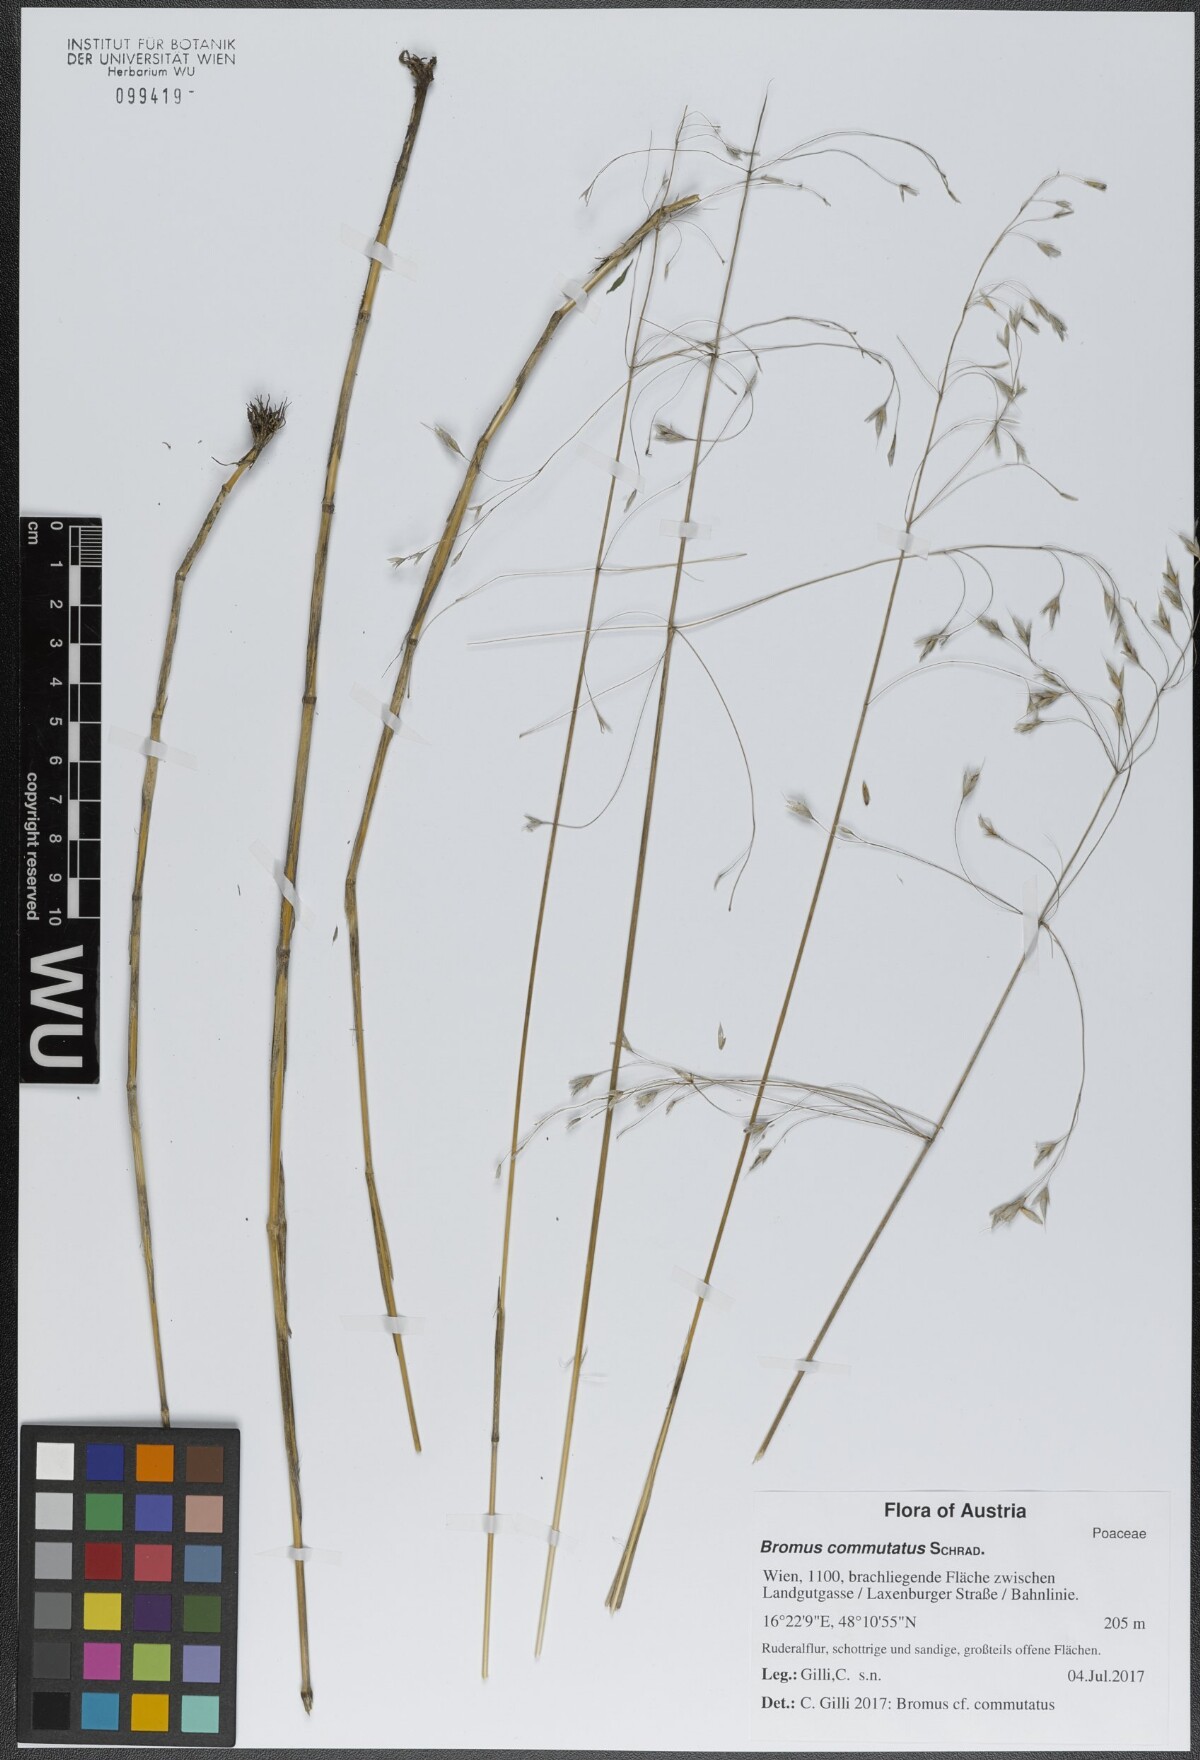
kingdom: Plantae
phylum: Tracheophyta
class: Liliopsida
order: Poales
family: Poaceae
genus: Bromus
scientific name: Bromus commutatus
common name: Meadow brome
